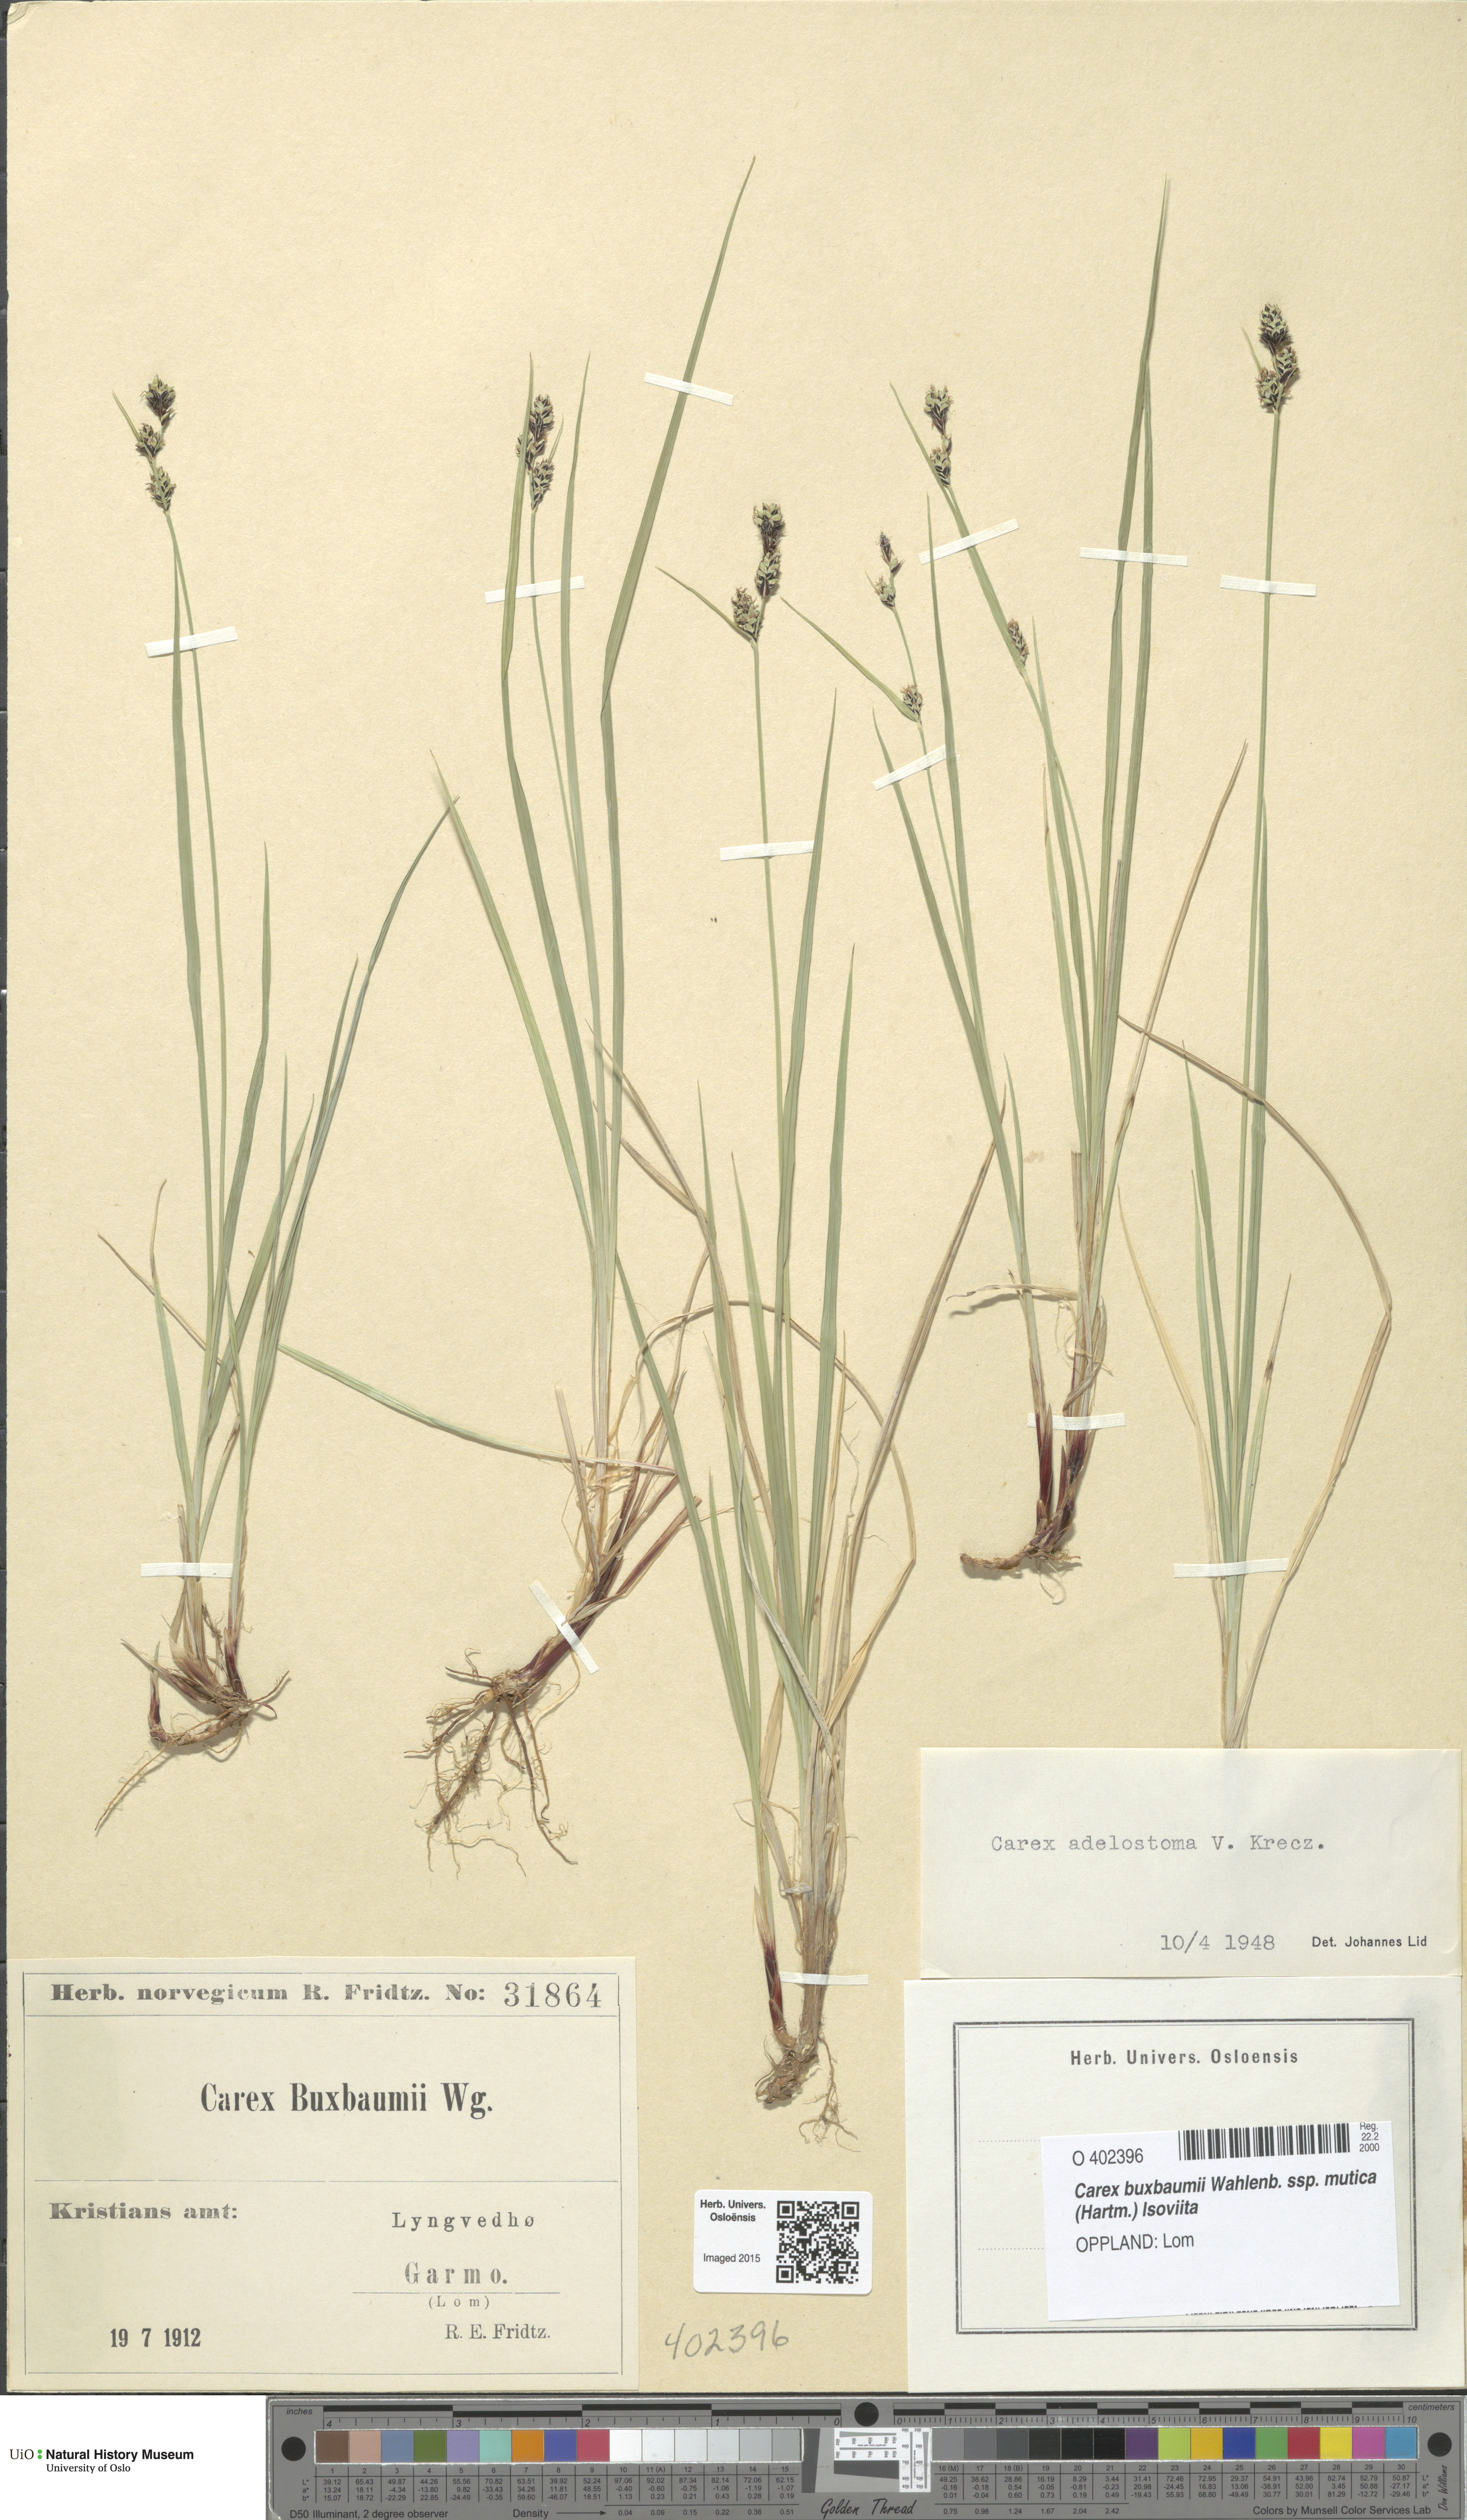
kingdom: Plantae
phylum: Tracheophyta
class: Liliopsida
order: Poales
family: Cyperaceae
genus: Carex
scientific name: Carex adelostoma
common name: Circumpolar sedge
